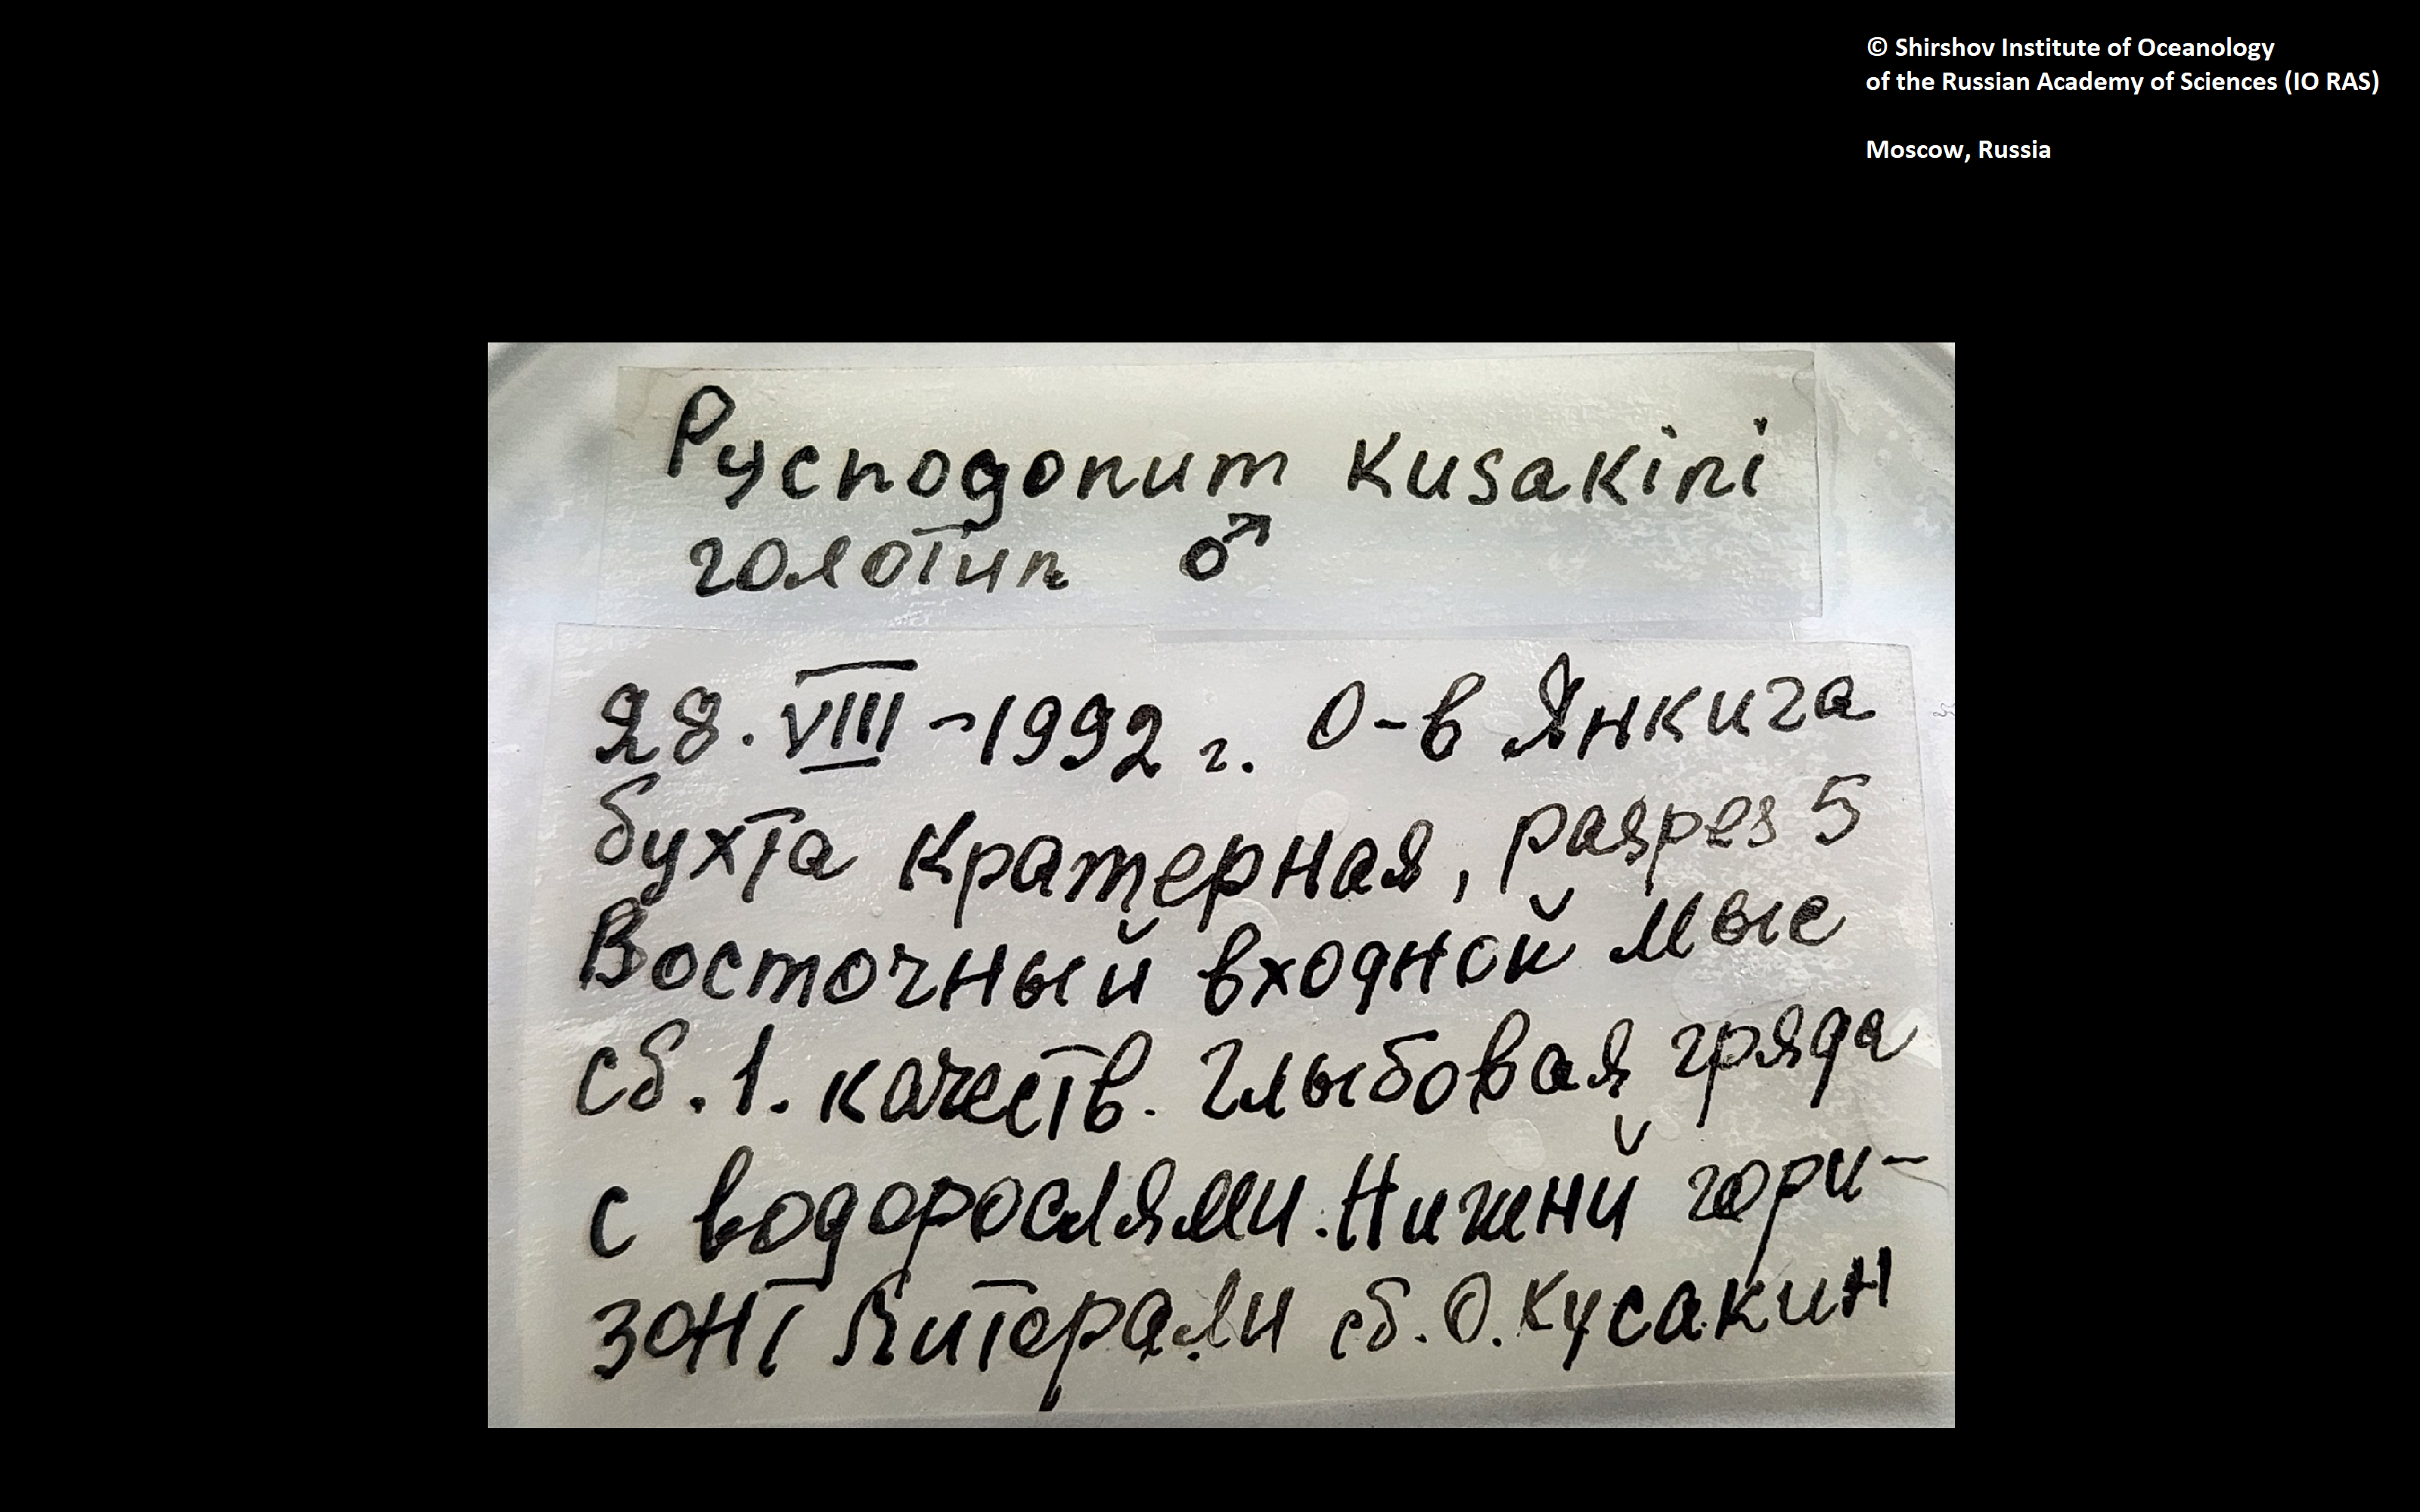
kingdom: Animalia
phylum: Arthropoda
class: Pycnogonida
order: Pantopoda
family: Pycnogonidae
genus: Pycnogonum
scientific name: Pycnogonum kussakini
